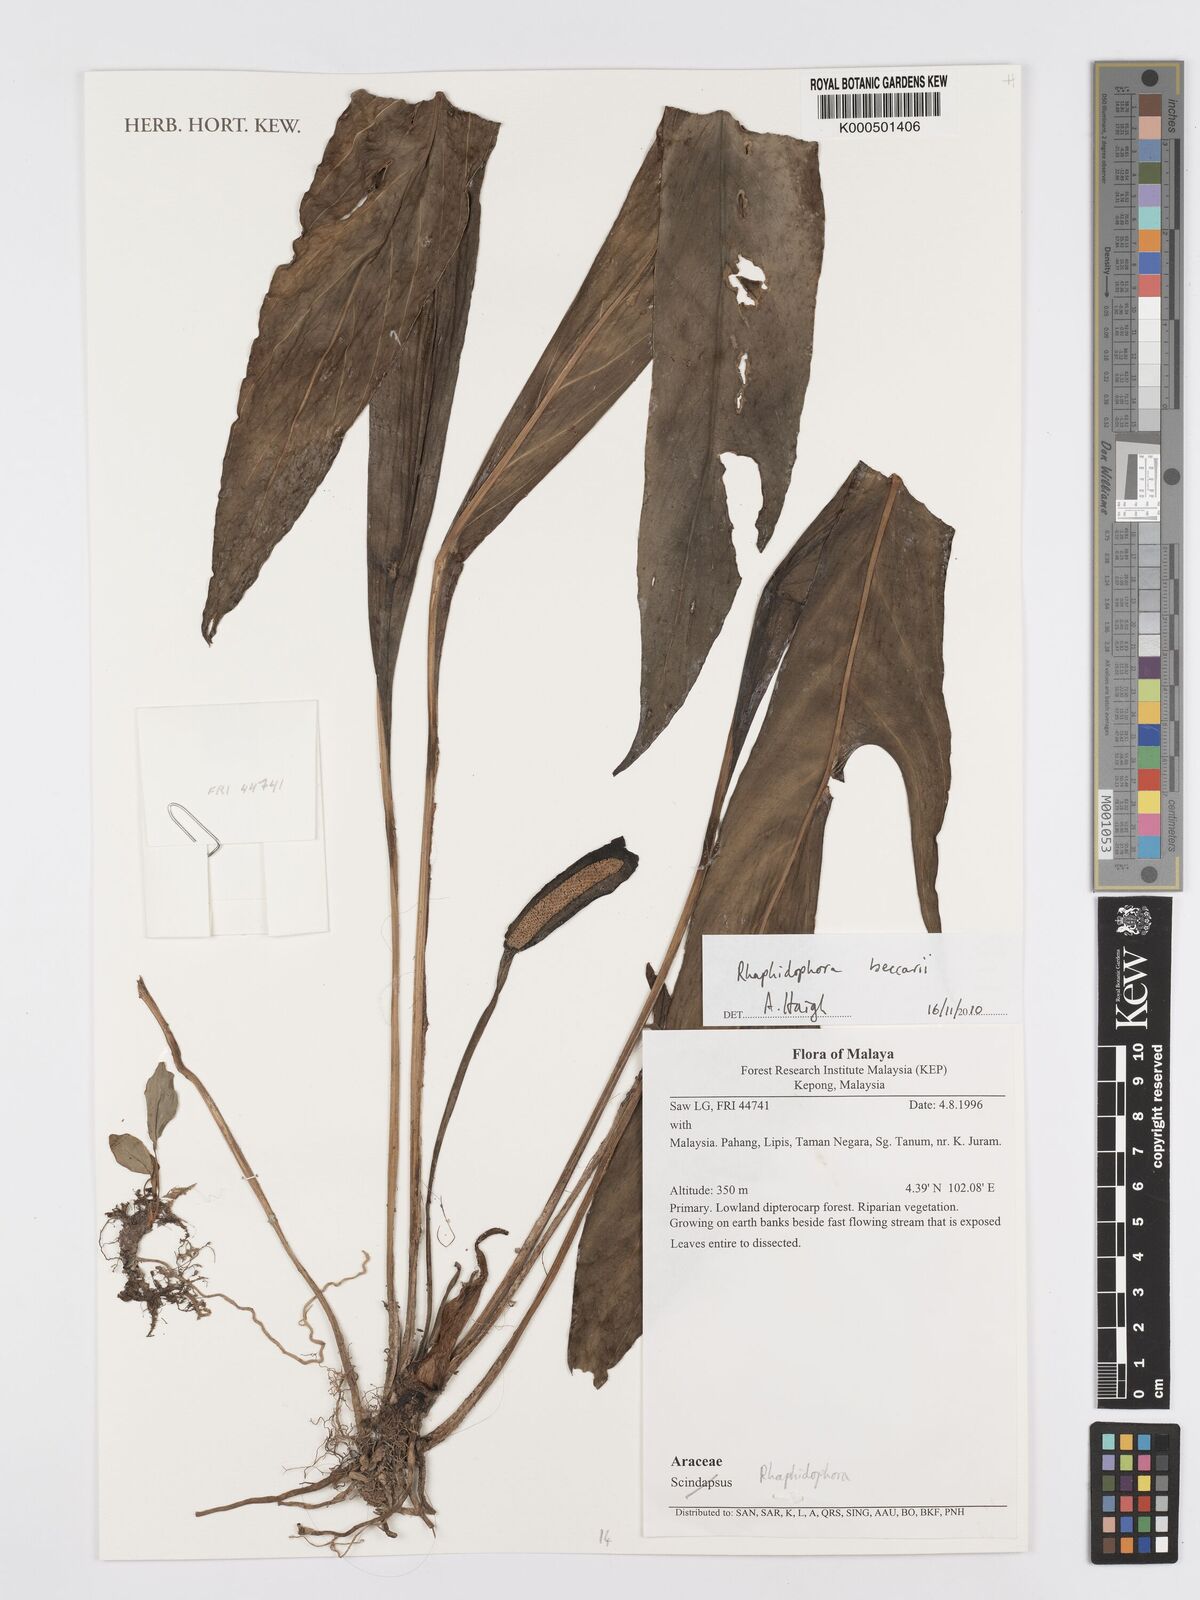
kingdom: Plantae
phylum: Tracheophyta
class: Liliopsida
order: Alismatales
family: Araceae
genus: Rhaphidophora
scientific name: Rhaphidophora
